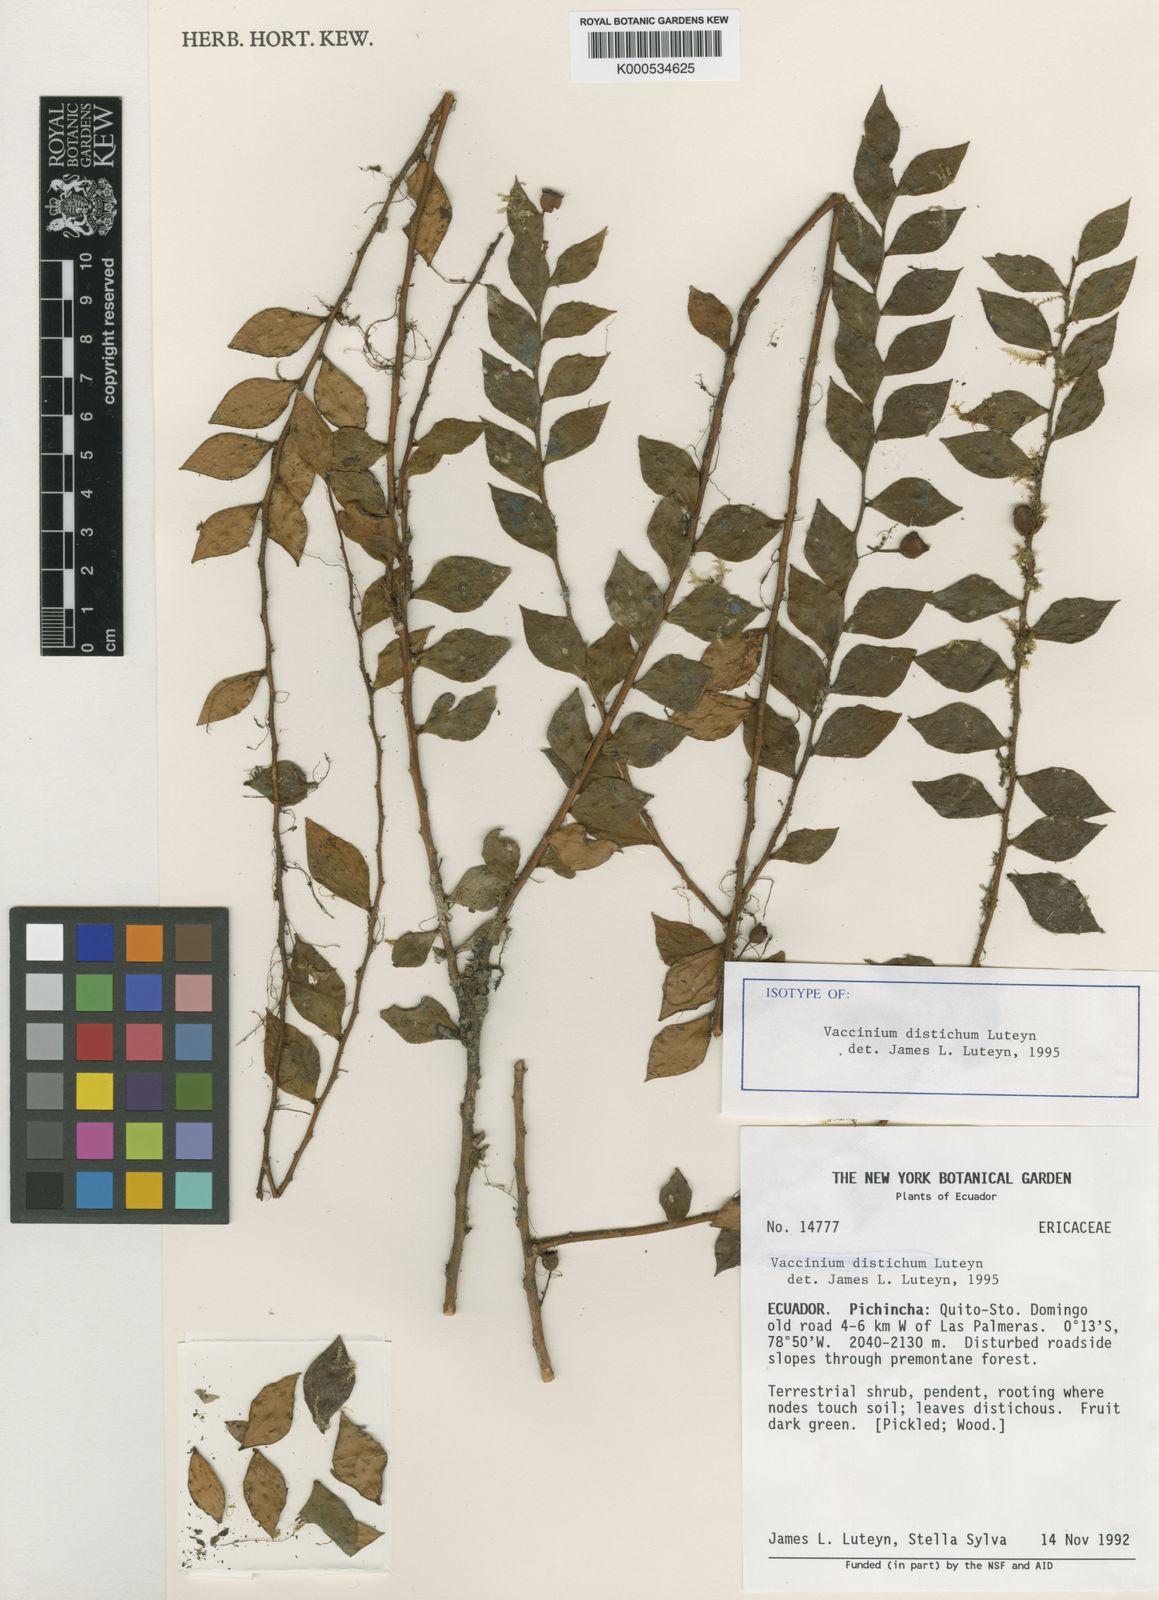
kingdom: Plantae
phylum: Tracheophyta
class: Magnoliopsida
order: Ericales
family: Ericaceae
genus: Vaccinium
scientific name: Vaccinium distichum
